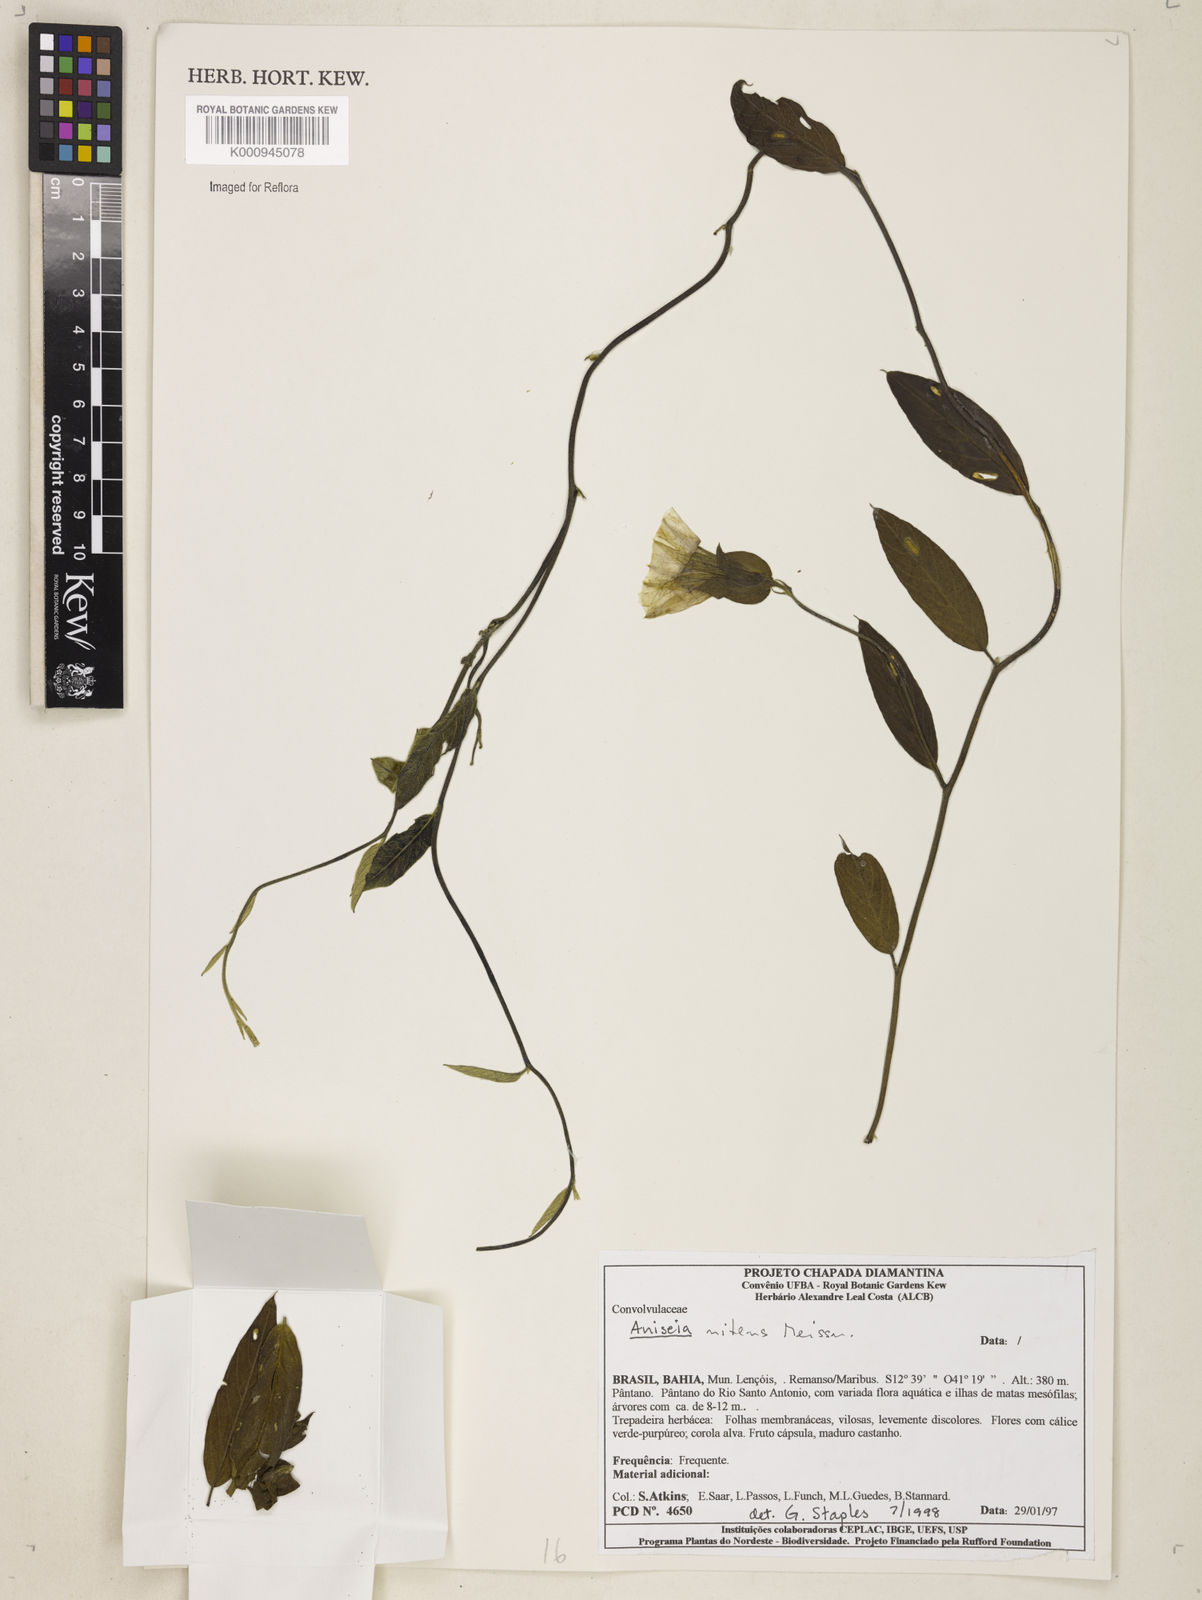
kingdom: Plantae
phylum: Tracheophyta
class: Magnoliopsida
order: Solanales
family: Convolvulaceae
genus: Aniseia
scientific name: Aniseia martinicensis
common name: Kulayadambu
